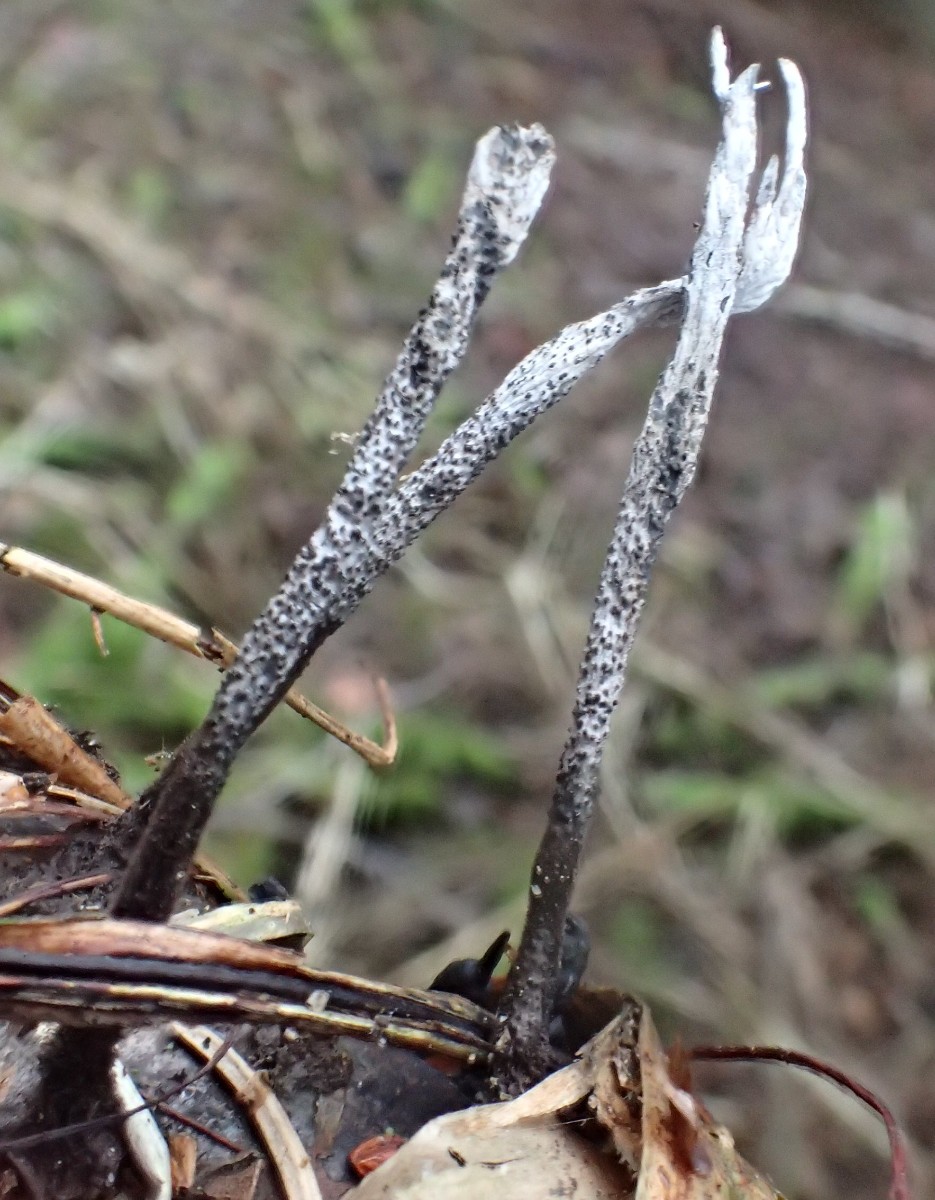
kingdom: Fungi
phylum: Ascomycota
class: Sordariomycetes
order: Xylariales
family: Xylariaceae
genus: Xylaria
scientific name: Xylaria hypoxylon
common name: grenet stødsvamp
